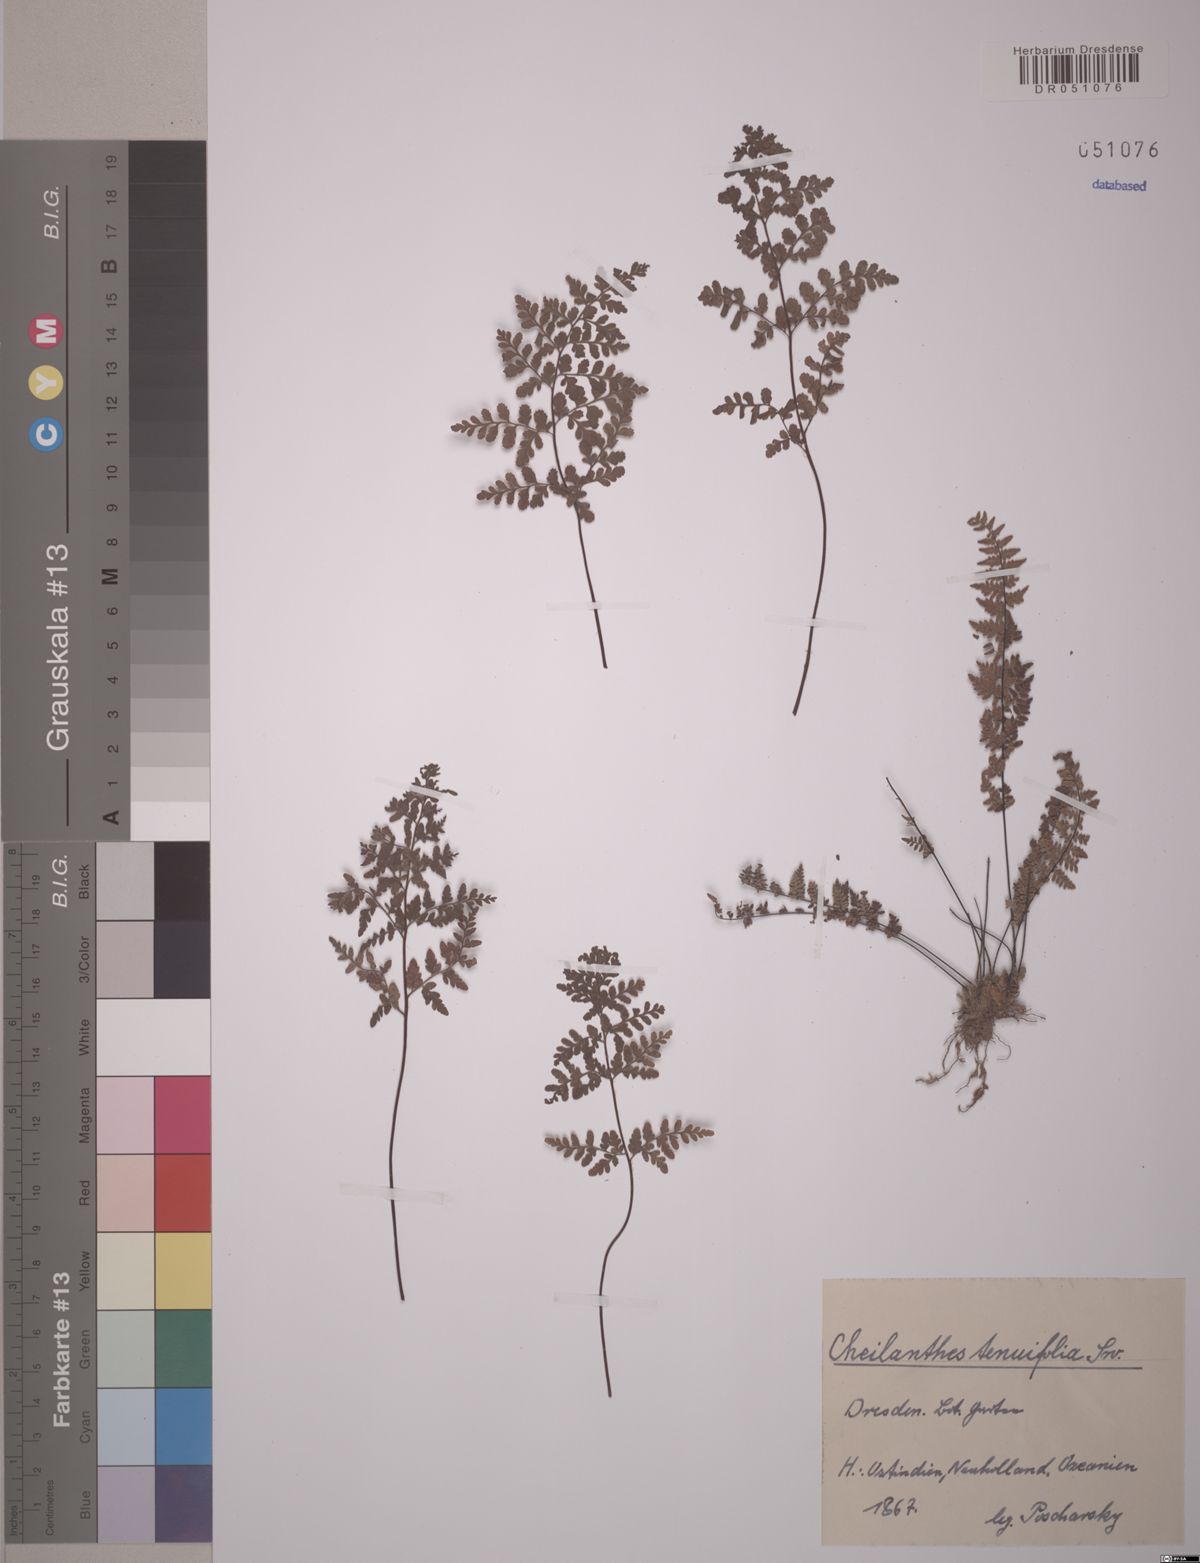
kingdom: Plantae
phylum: Tracheophyta
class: Polypodiopsida
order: Polypodiales
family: Pteridaceae
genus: Cheilanthes
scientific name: Cheilanthes tenuifolia
